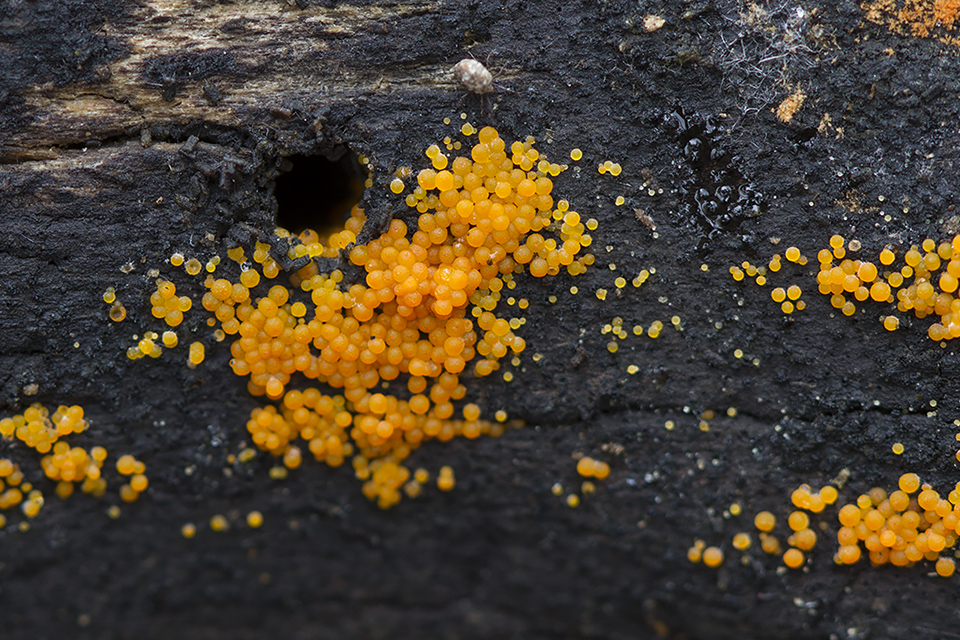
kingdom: Fungi
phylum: Ascomycota
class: Sordariomycetes
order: Hypocreales
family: Nectriaceae
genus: Hydropisphaera
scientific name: Hydropisphaera peziza
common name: skålformet gyldenkerne
